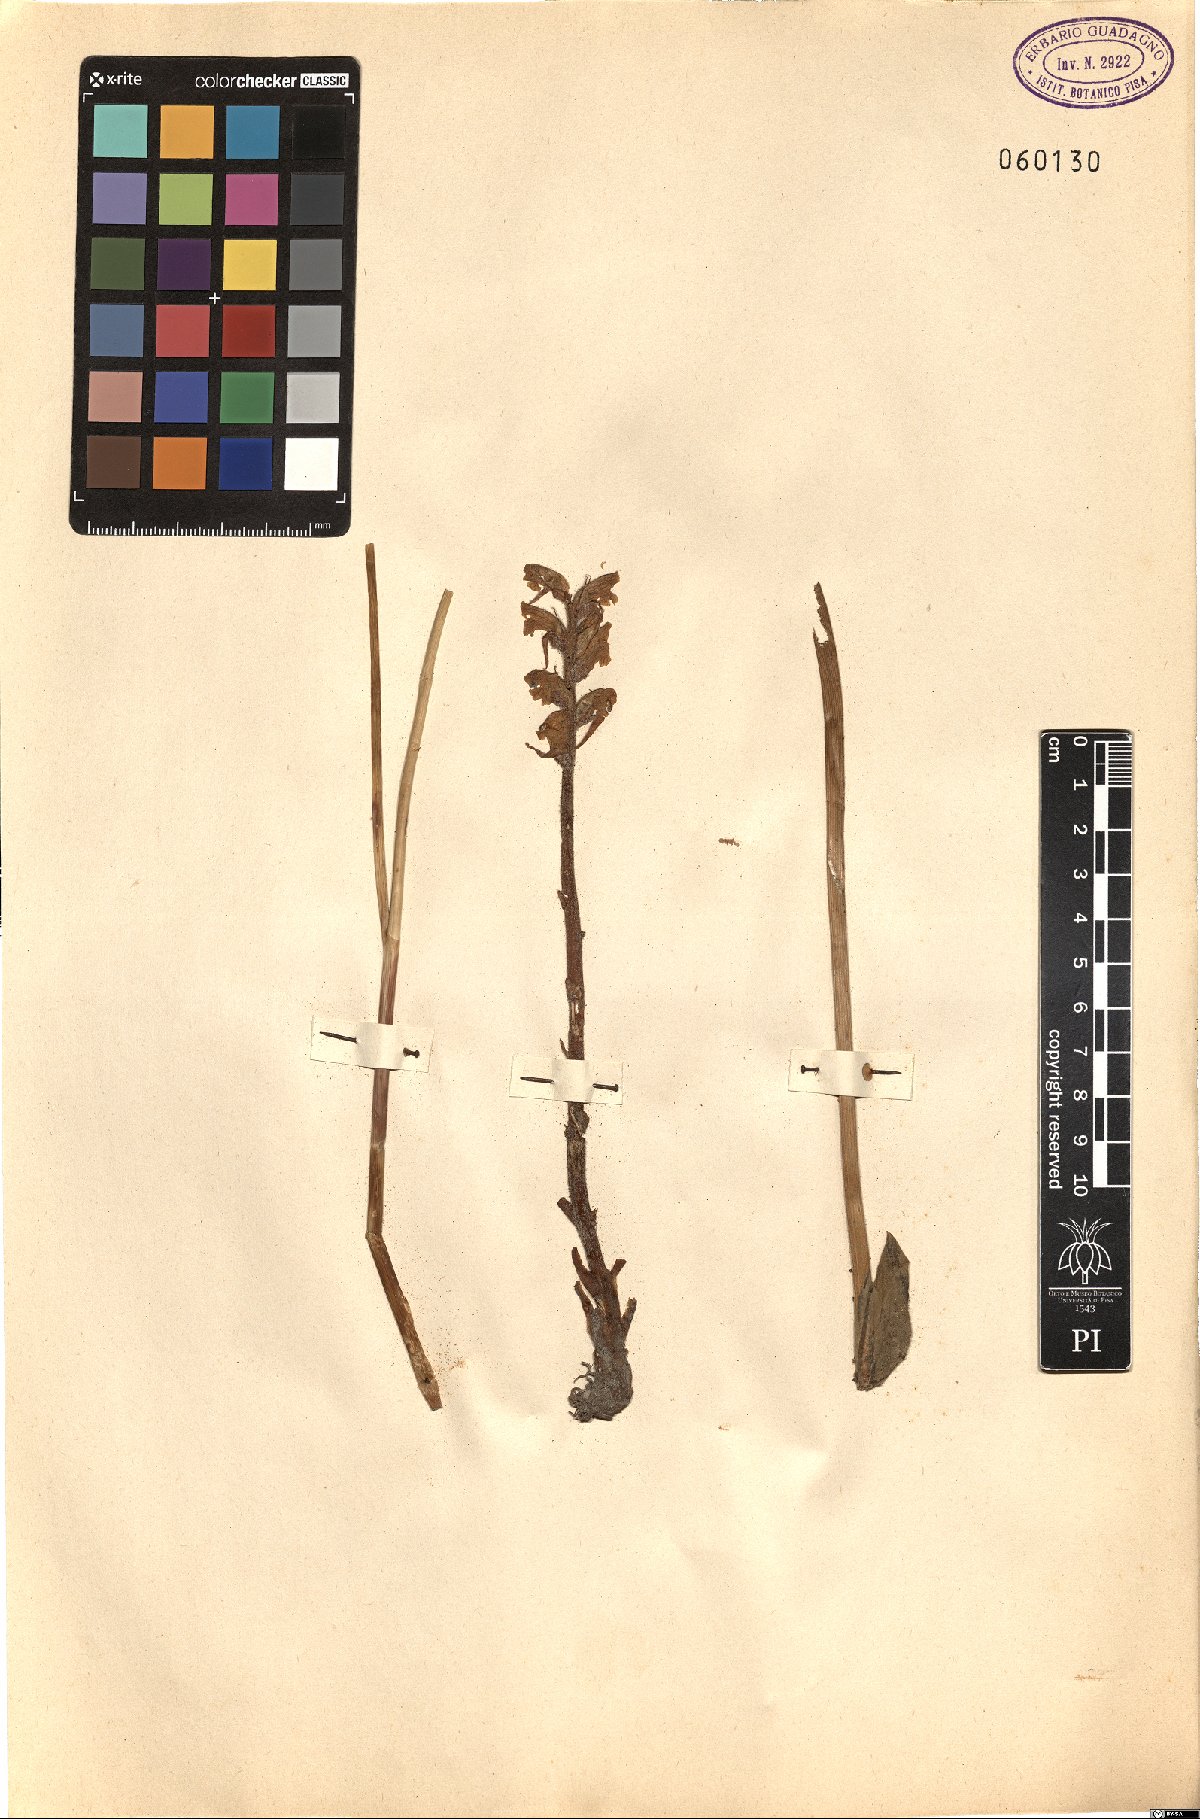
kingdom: Plantae
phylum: Tracheophyta
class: Magnoliopsida
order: Lamiales
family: Orobanchaceae
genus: Orobanche
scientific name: Orobanche
